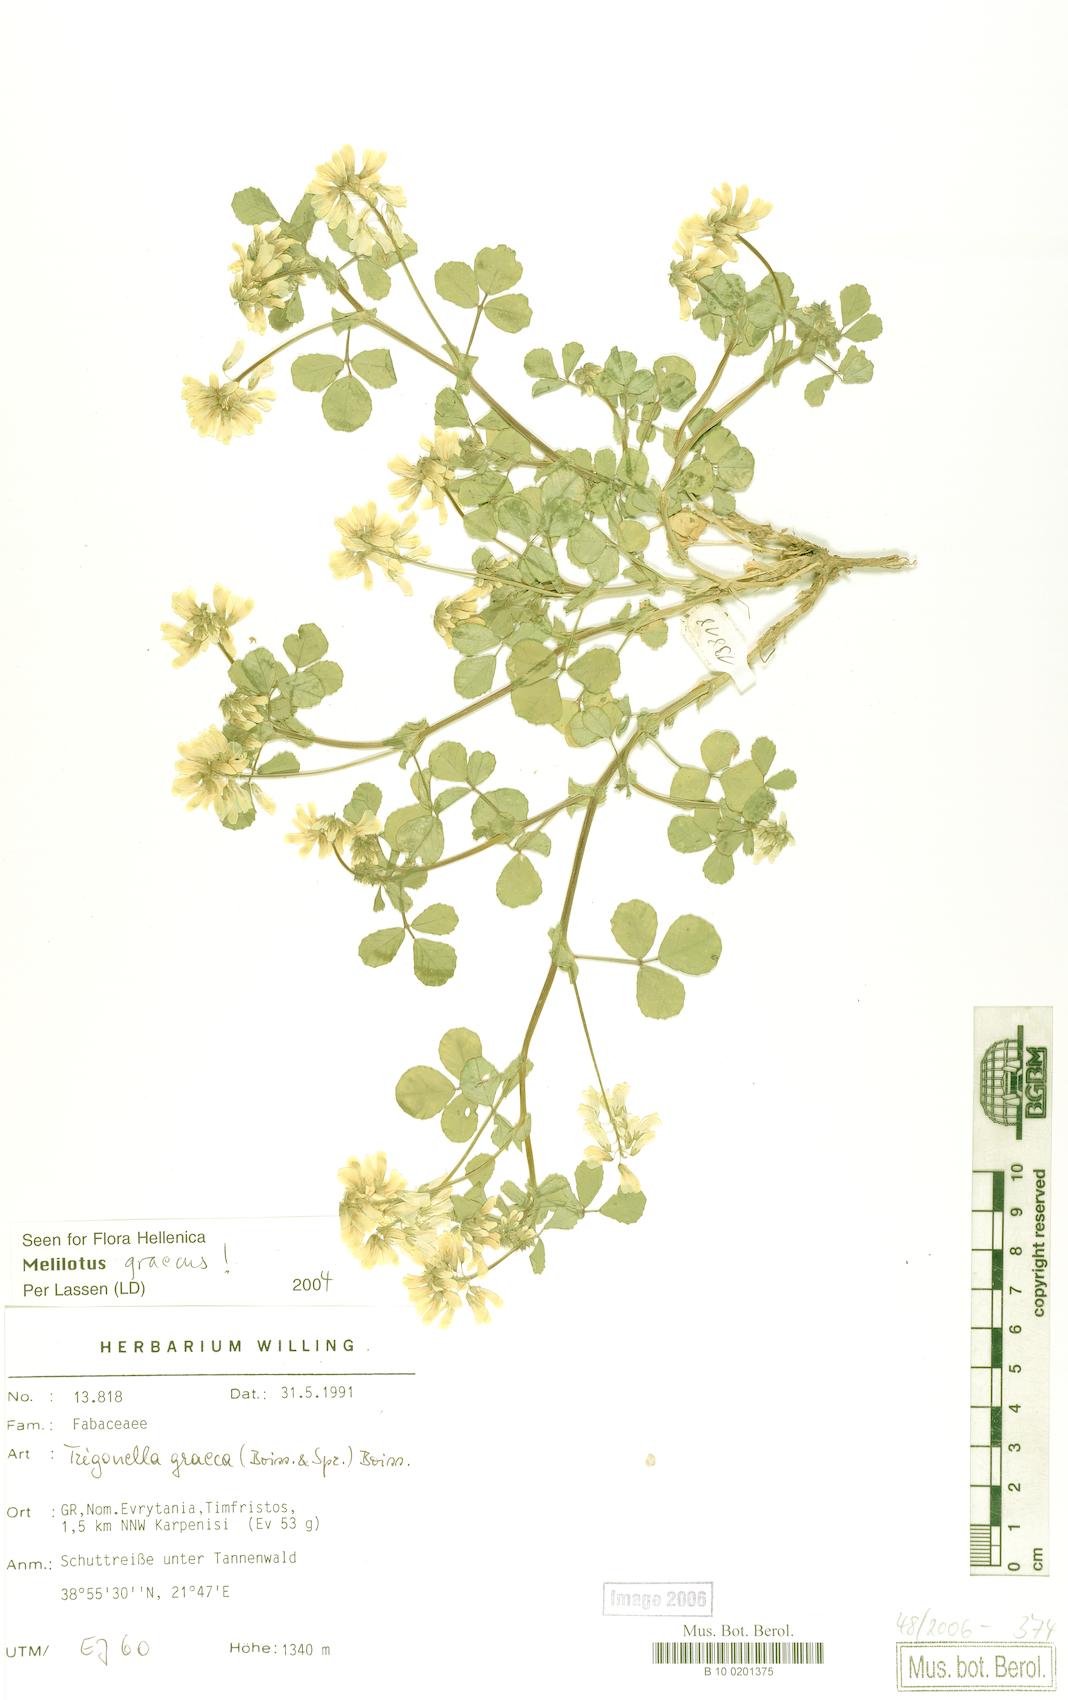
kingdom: Plantae
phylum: Tracheophyta
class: Magnoliopsida
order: Fabales
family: Fabaceae
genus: Trigonella
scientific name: Trigonella graeca
